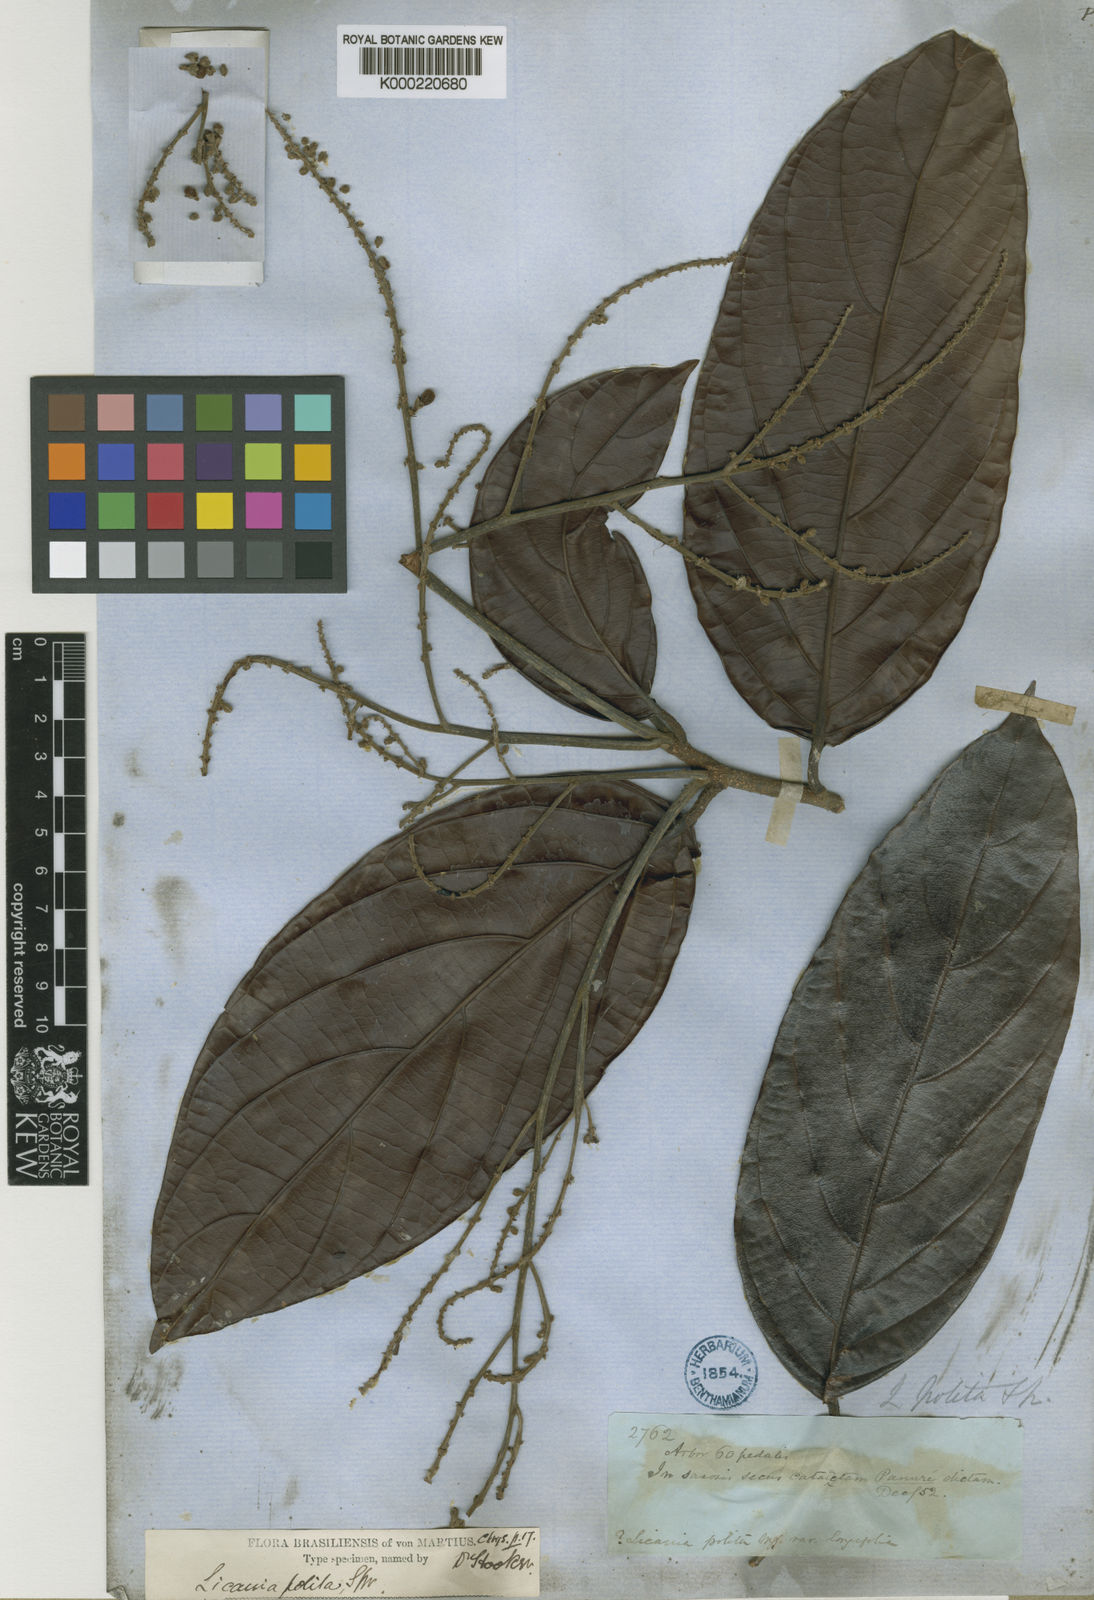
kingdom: Plantae
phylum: Tracheophyta
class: Magnoliopsida
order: Malpighiales
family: Chrysobalanaceae
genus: Licania
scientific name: Licania polita
